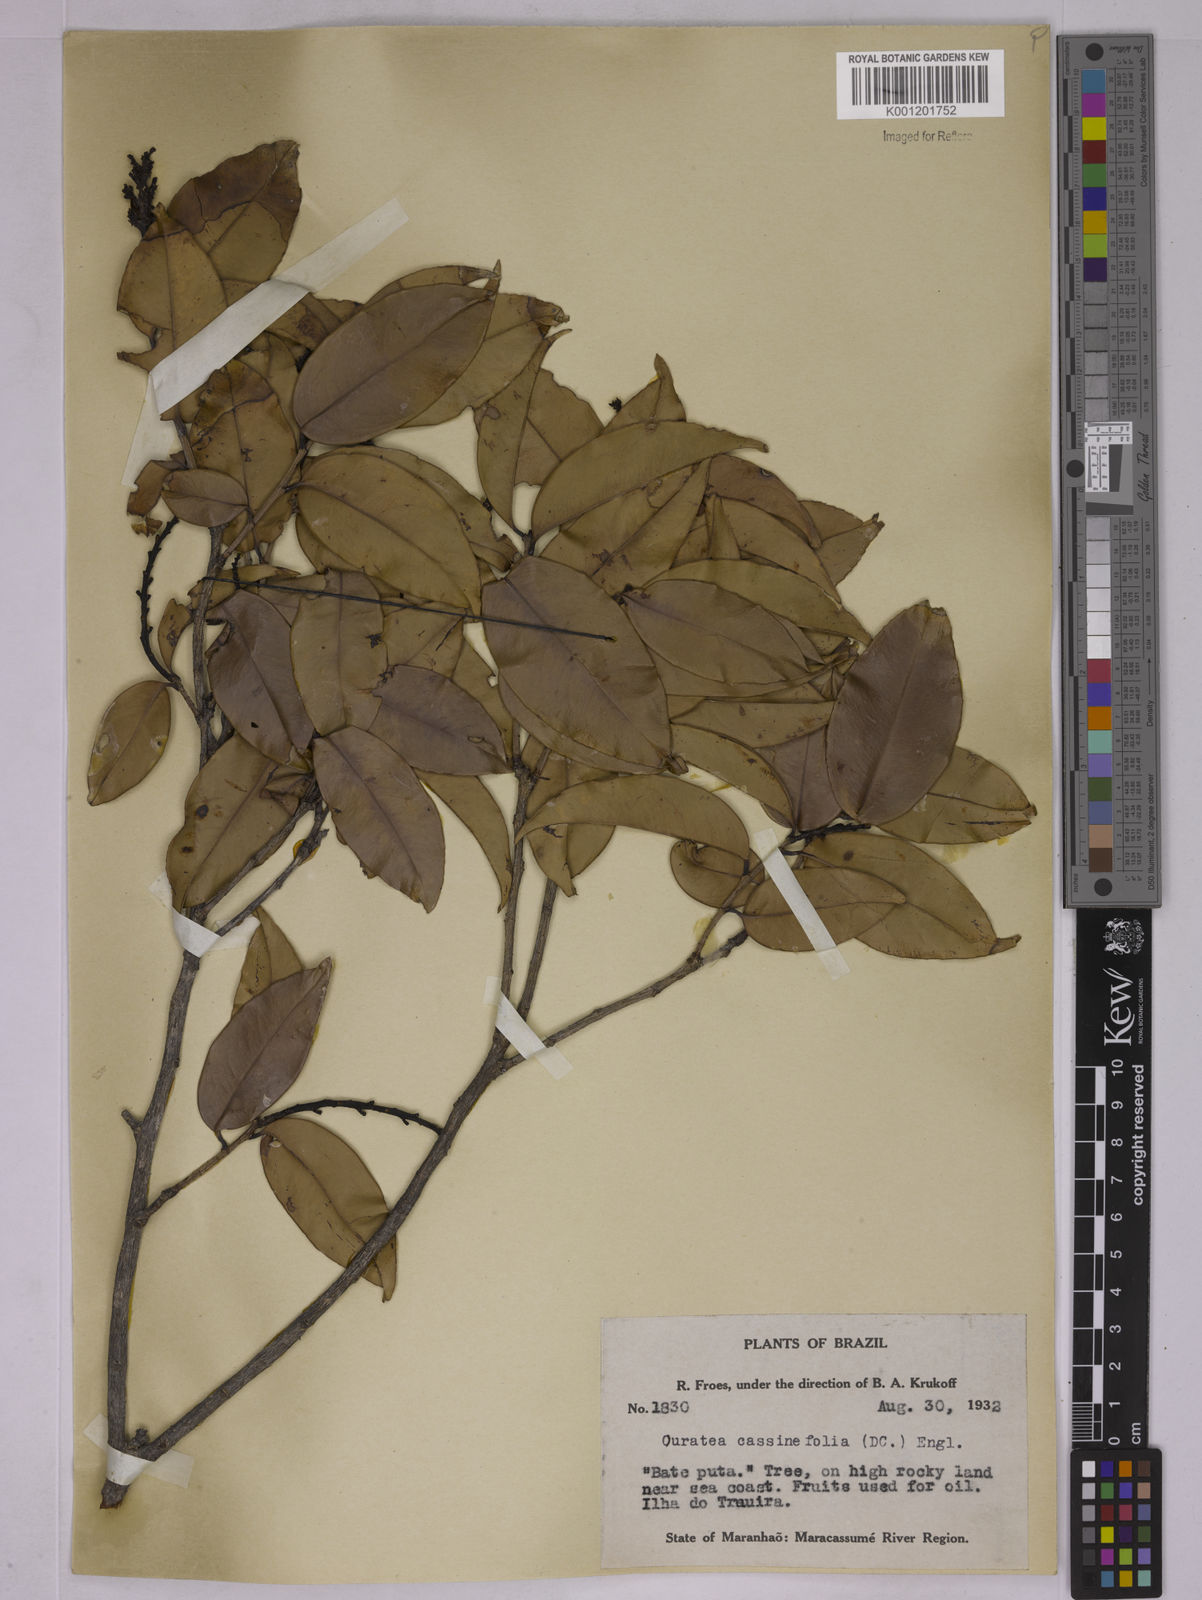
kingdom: Plantae
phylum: Tracheophyta
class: Magnoliopsida
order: Malpighiales
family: Ochnaceae
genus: Ouratea
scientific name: Ouratea
